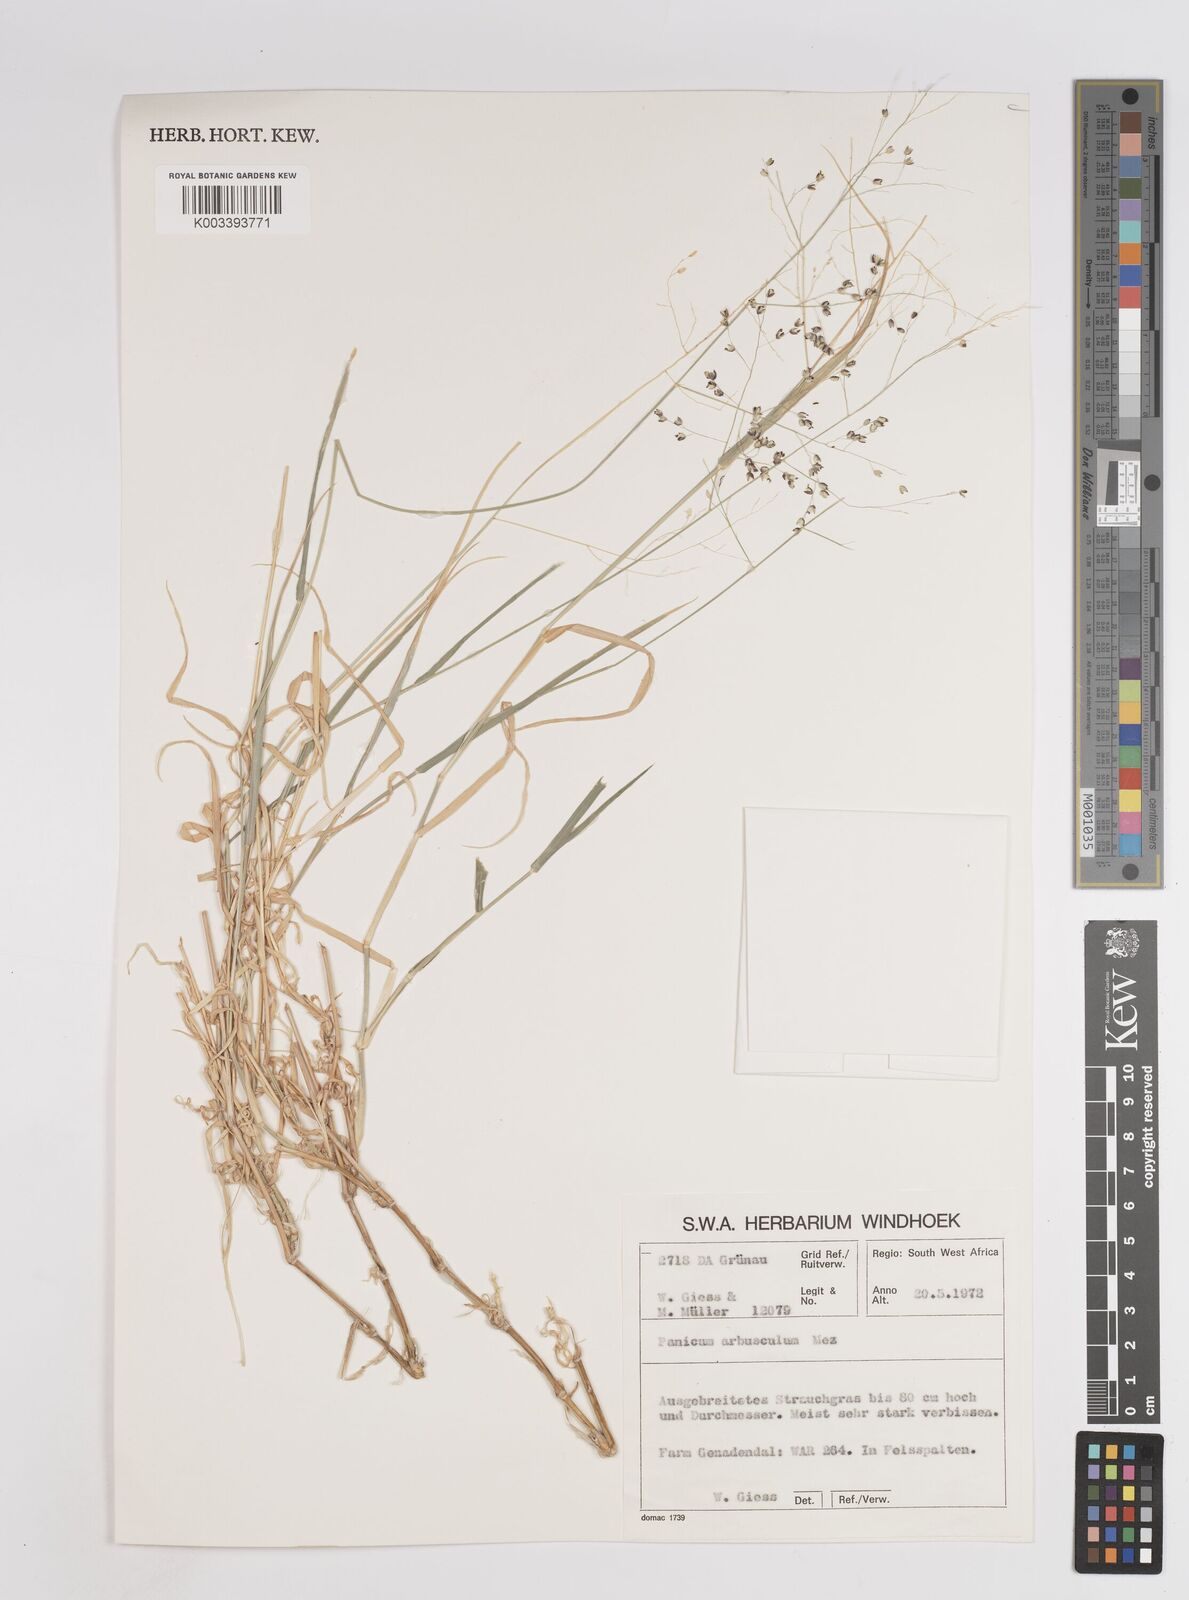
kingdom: Plantae
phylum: Tracheophyta
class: Liliopsida
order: Poales
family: Poaceae
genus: Panicum
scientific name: Panicum arbusculum
